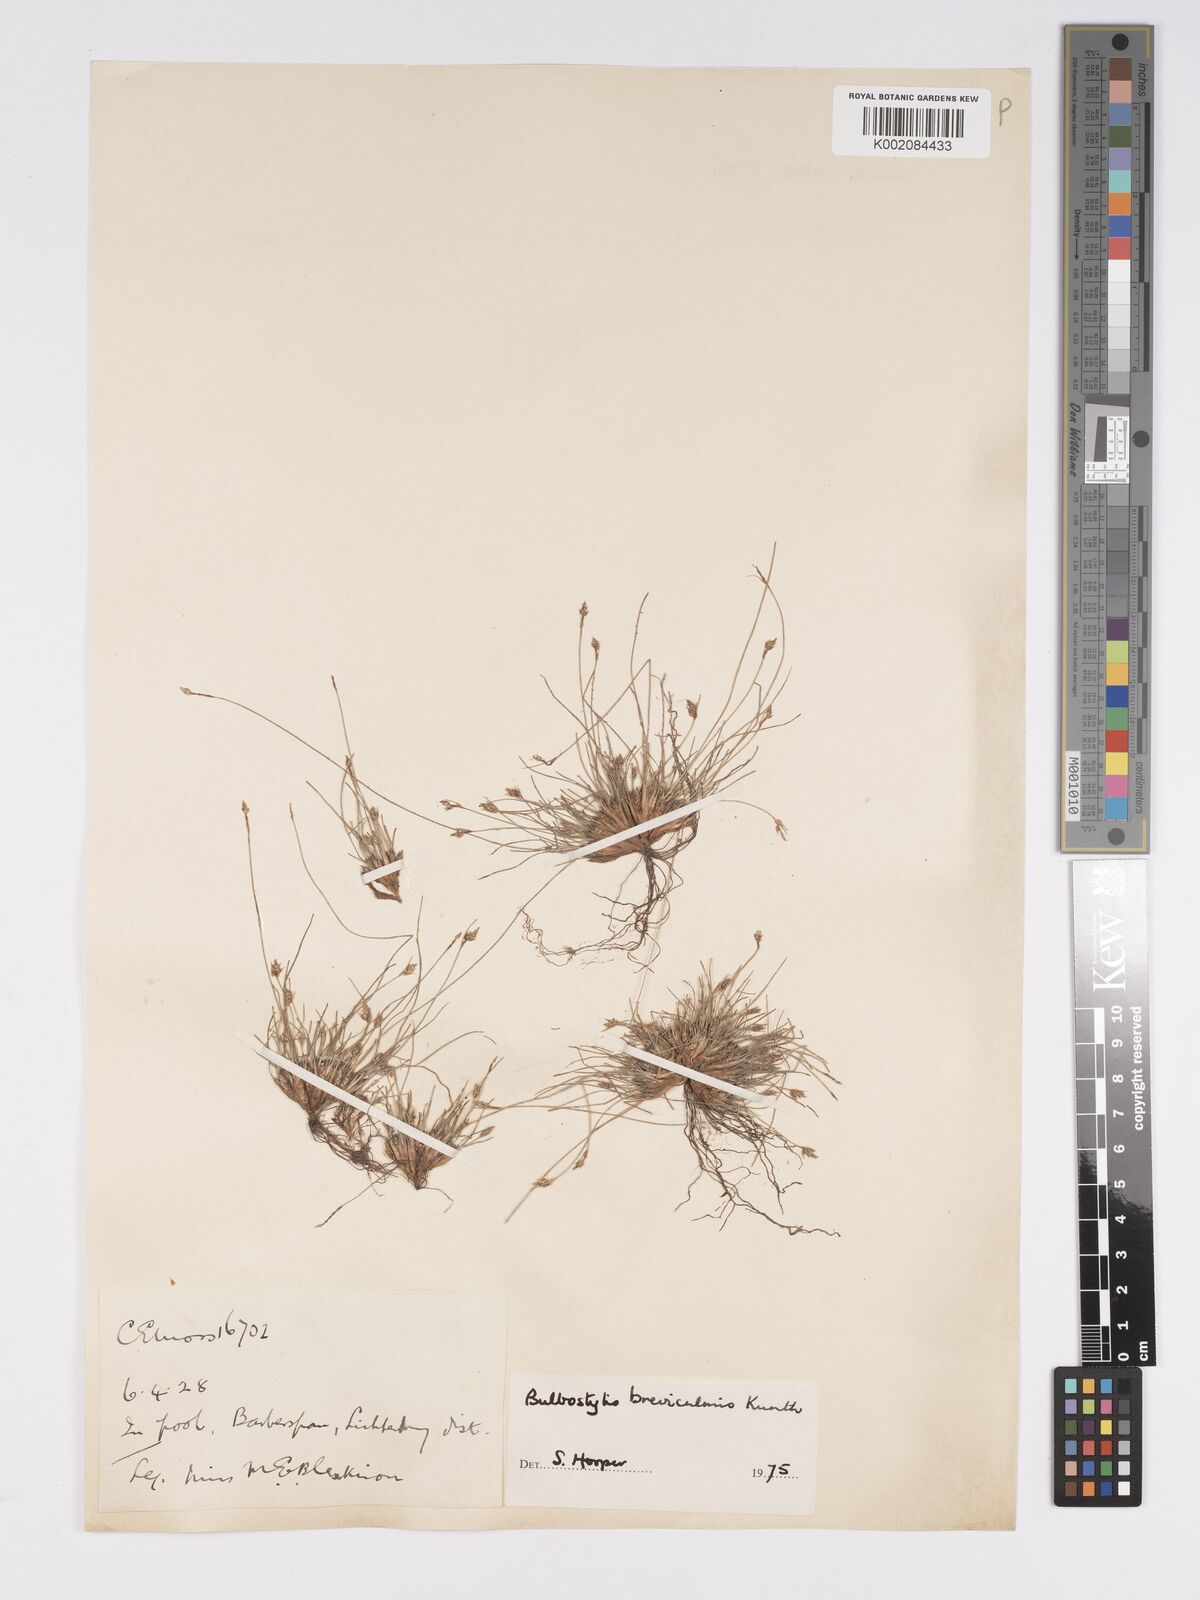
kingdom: Plantae
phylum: Tracheophyta
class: Liliopsida
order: Poales
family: Cyperaceae
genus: Bulbostylis
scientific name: Bulbostylis humilis
